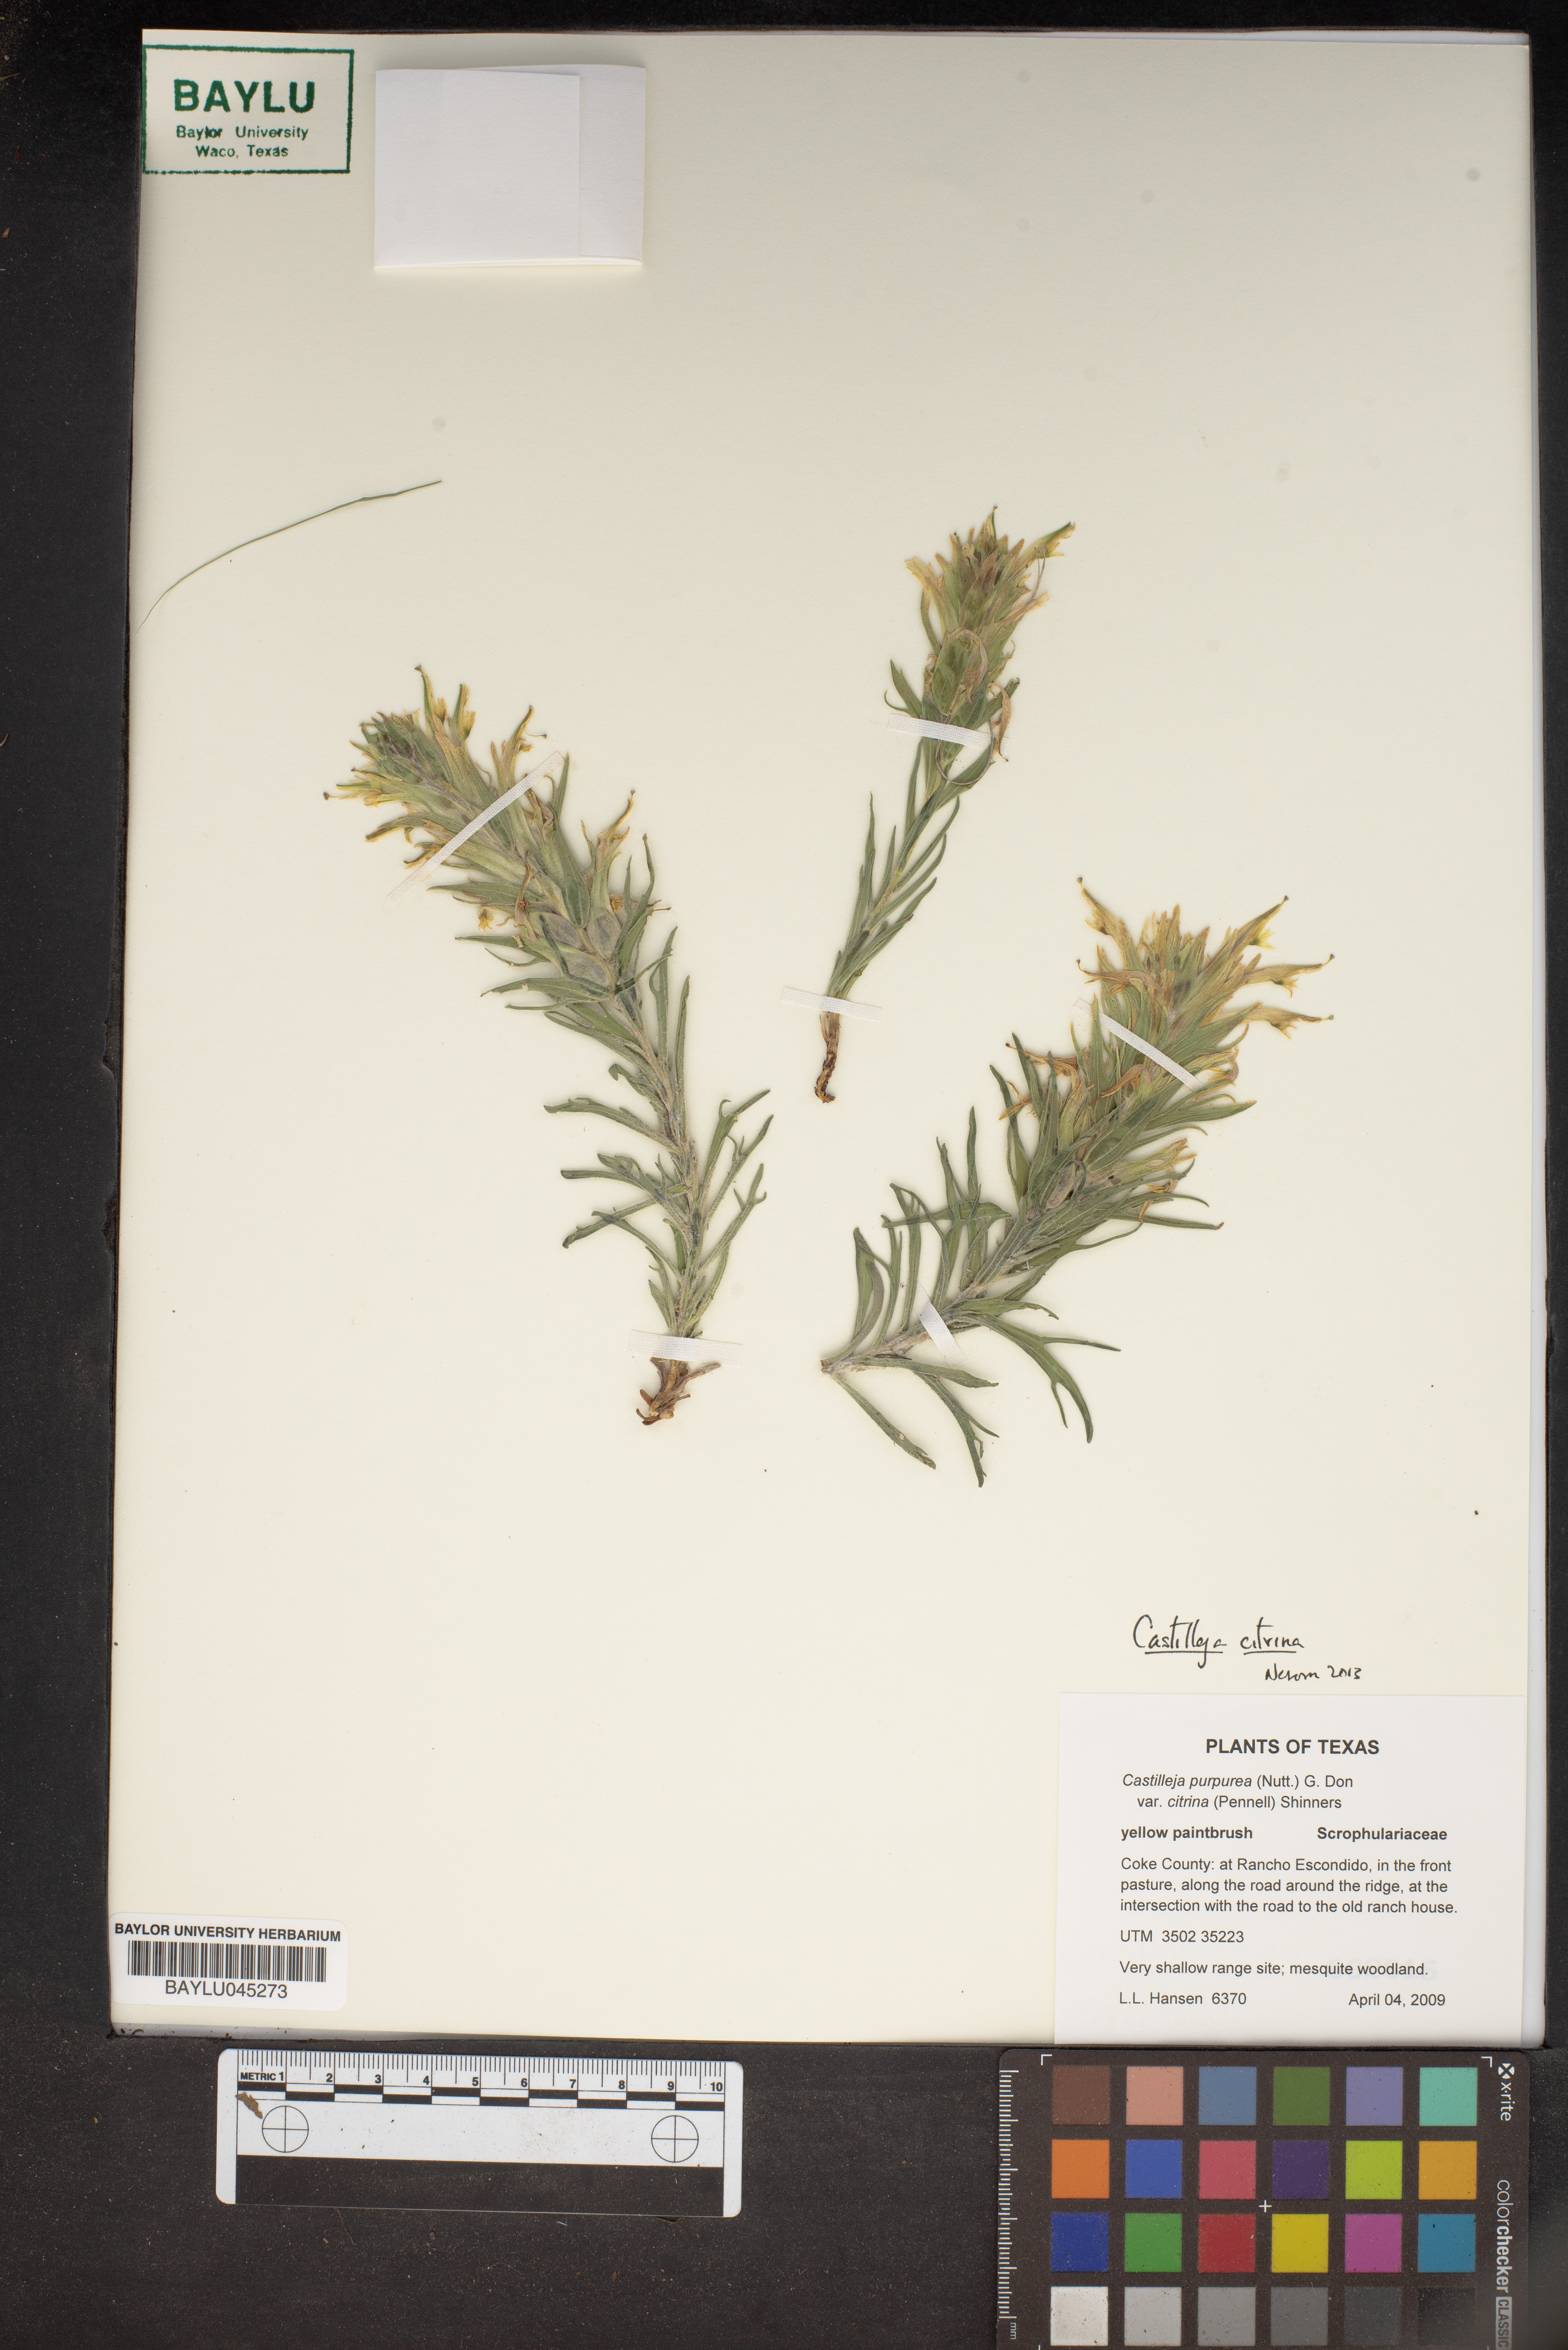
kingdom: Plantae
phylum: Tracheophyta
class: Magnoliopsida
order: Lamiales
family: Orobanchaceae
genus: Castilleja
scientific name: Castilleja citrina
